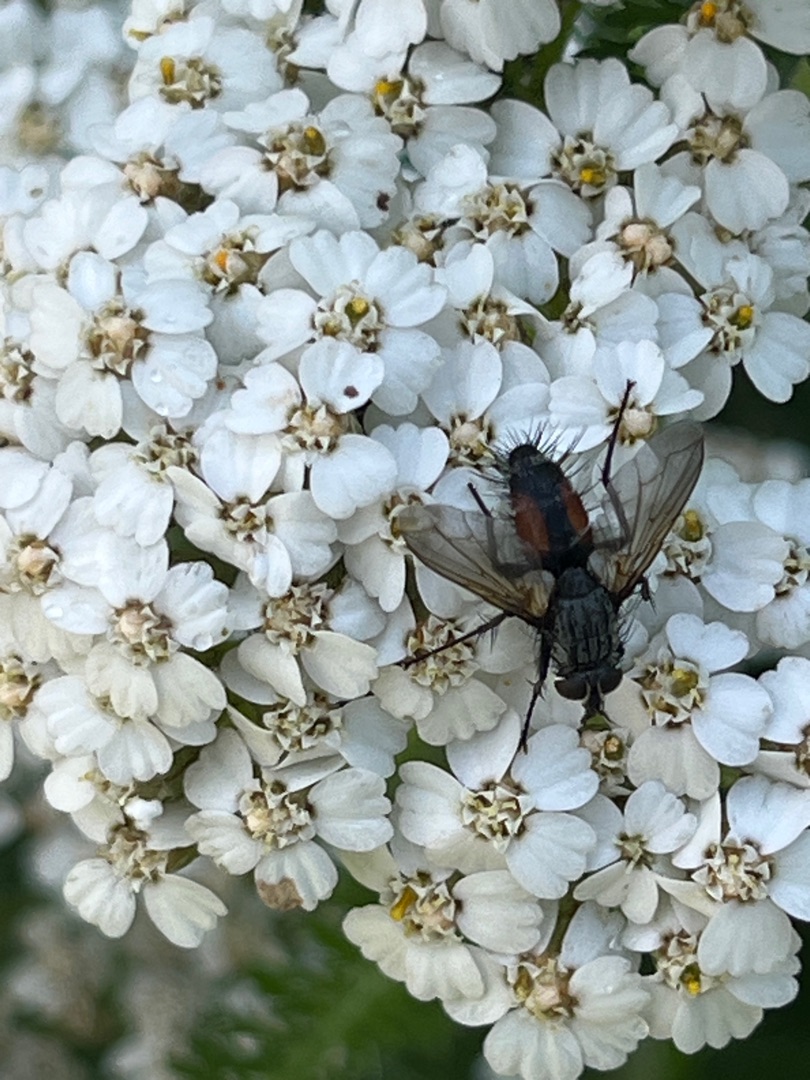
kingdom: Animalia
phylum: Arthropoda
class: Insecta
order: Diptera
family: Tachinidae
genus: Eriothrix
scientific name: Eriothrix
